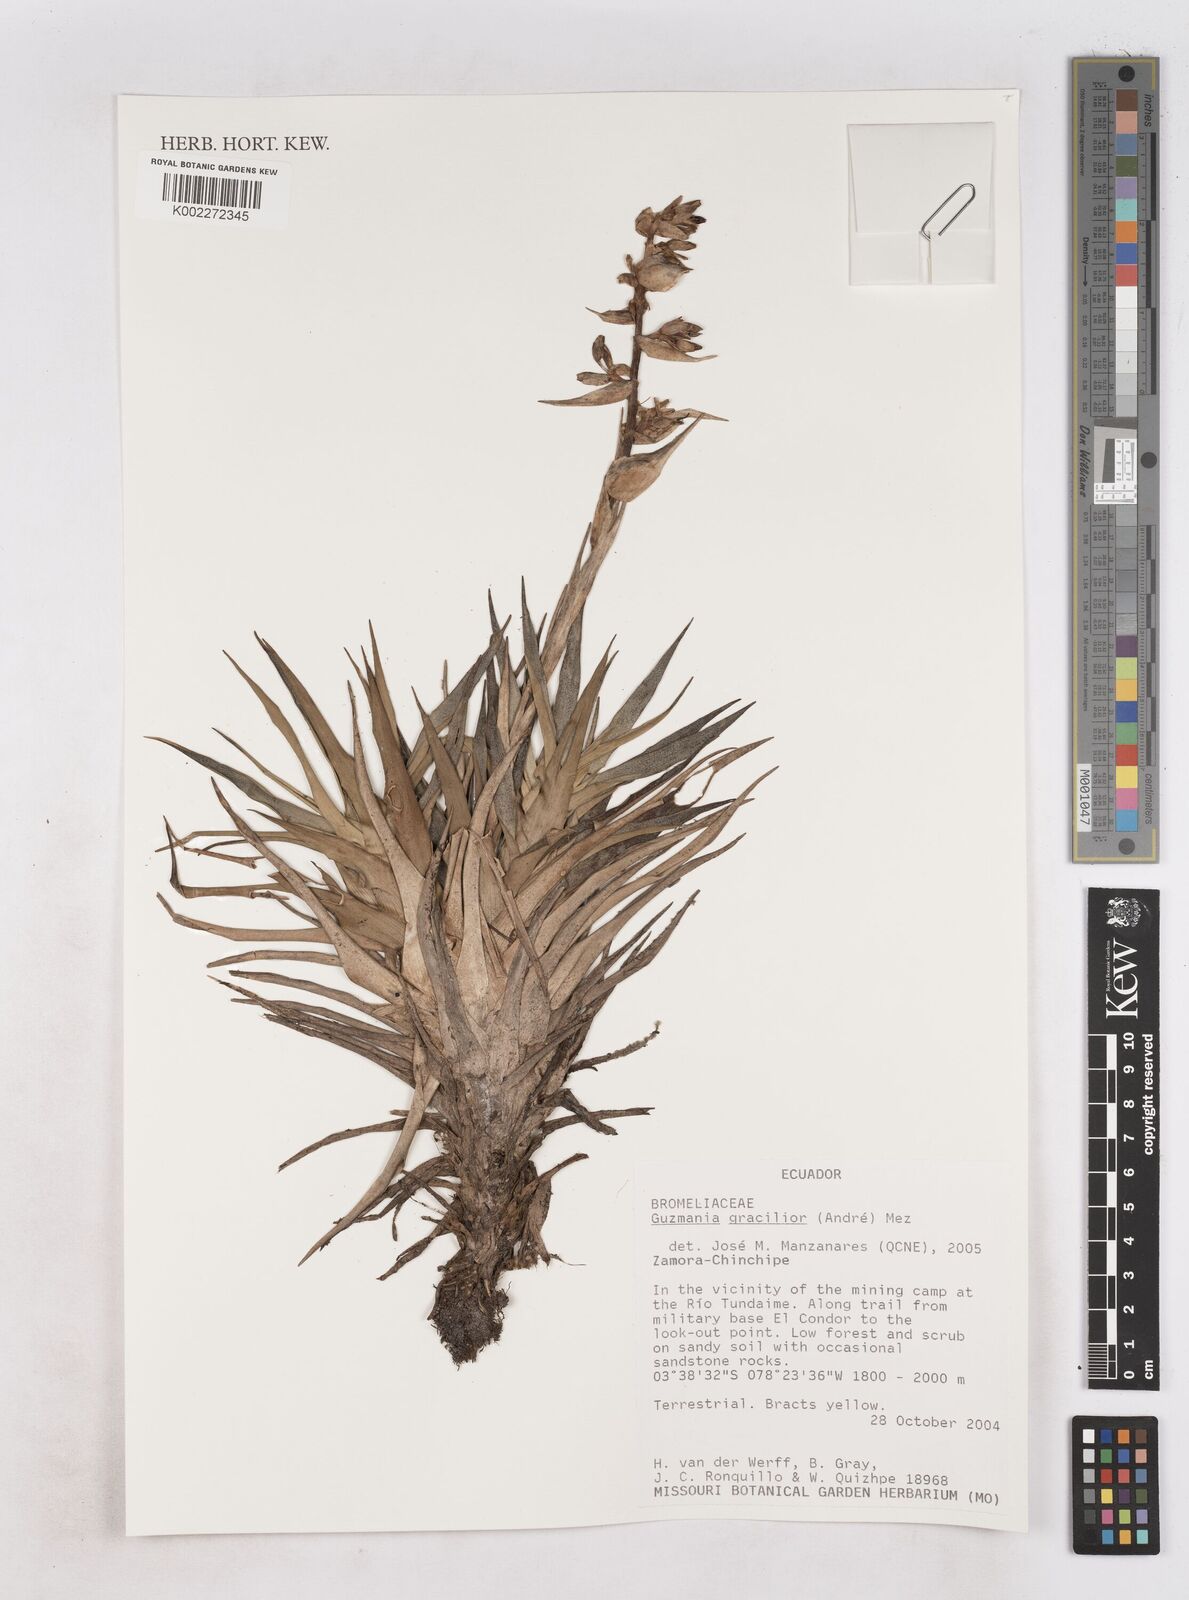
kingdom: Plantae
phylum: Tracheophyta
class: Liliopsida
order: Poales
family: Bromeliaceae
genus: Guzmania
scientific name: Guzmania gracilior
